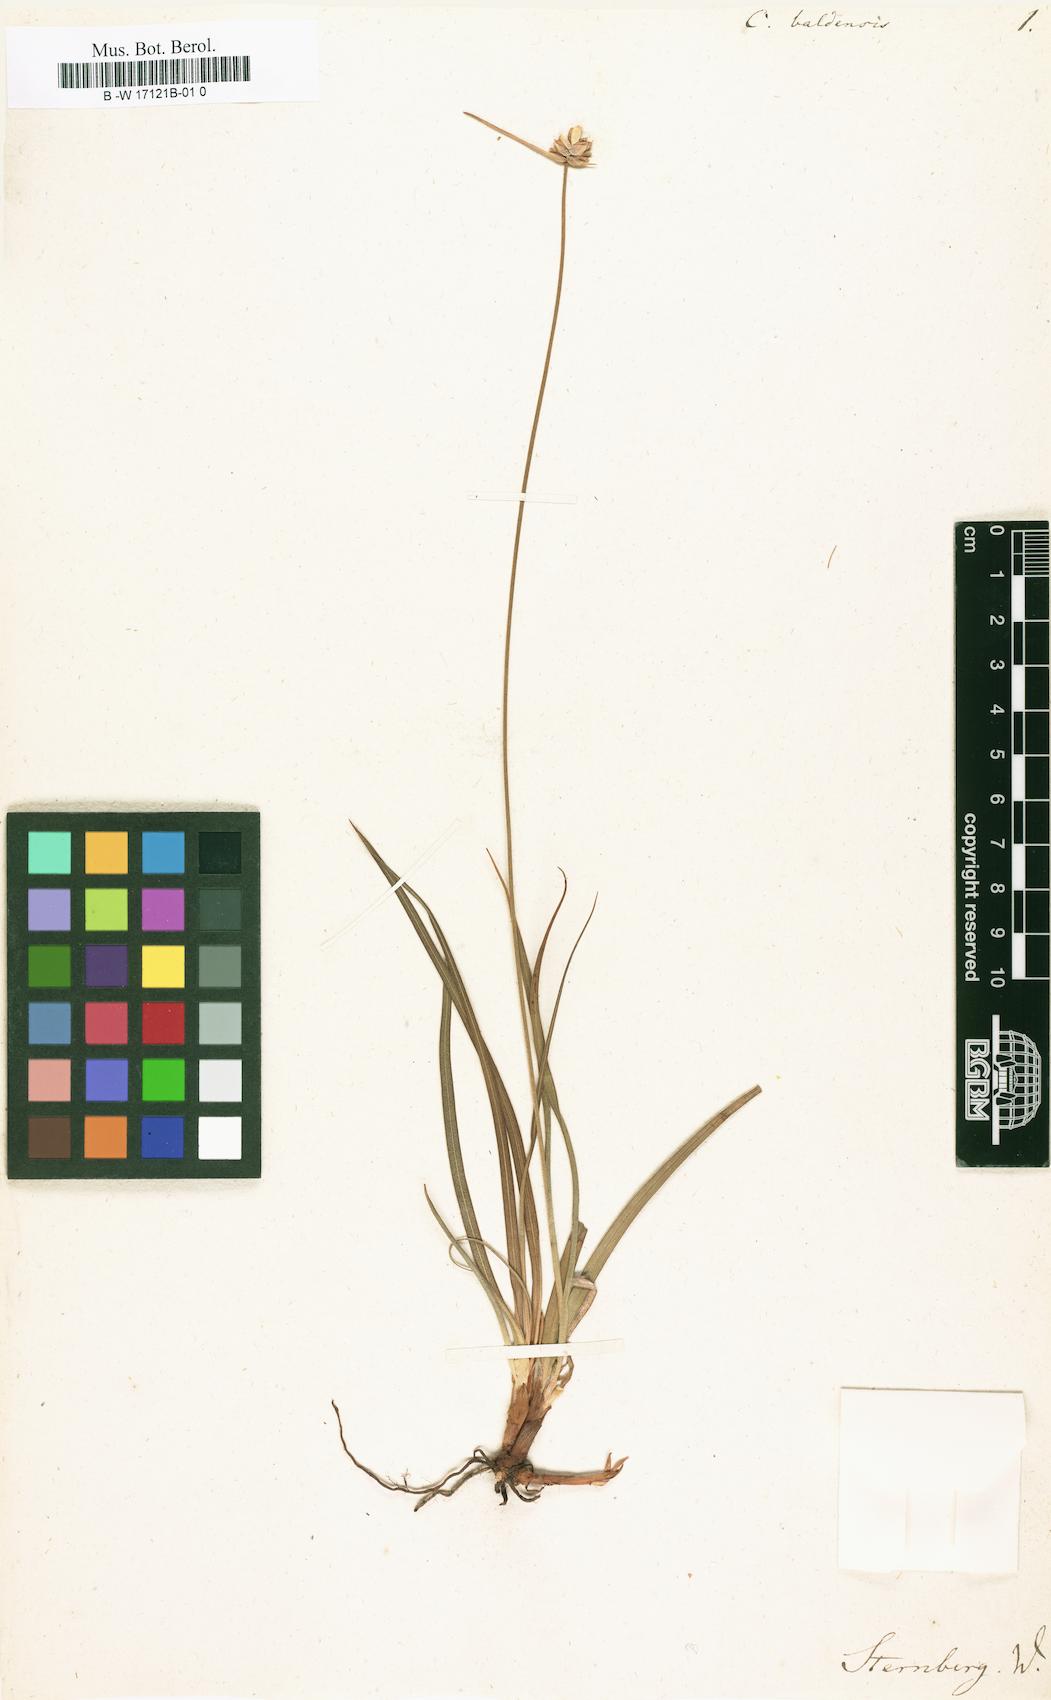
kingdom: Plantae
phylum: Tracheophyta
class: Liliopsida
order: Poales
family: Cyperaceae
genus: Carex
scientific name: Carex baldensis
